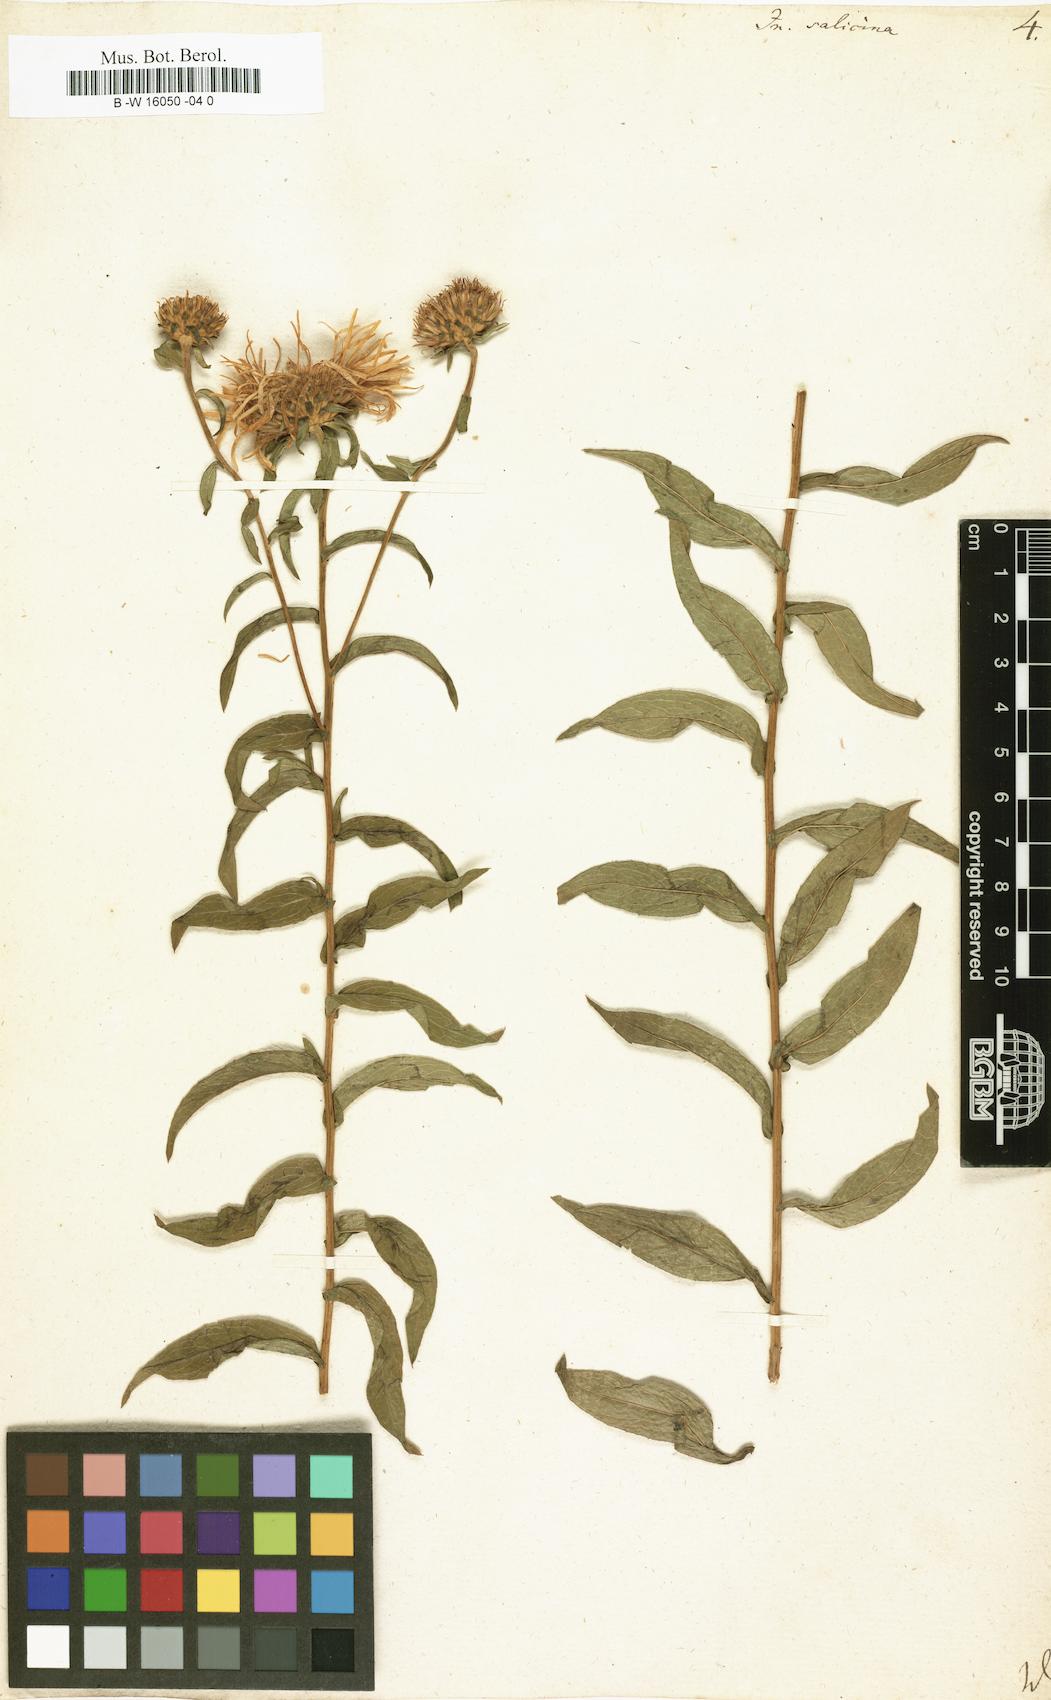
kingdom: Plantae
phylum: Tracheophyta
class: Magnoliopsida
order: Asterales
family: Asteraceae
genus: Pentanema
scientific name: Pentanema salicinum
